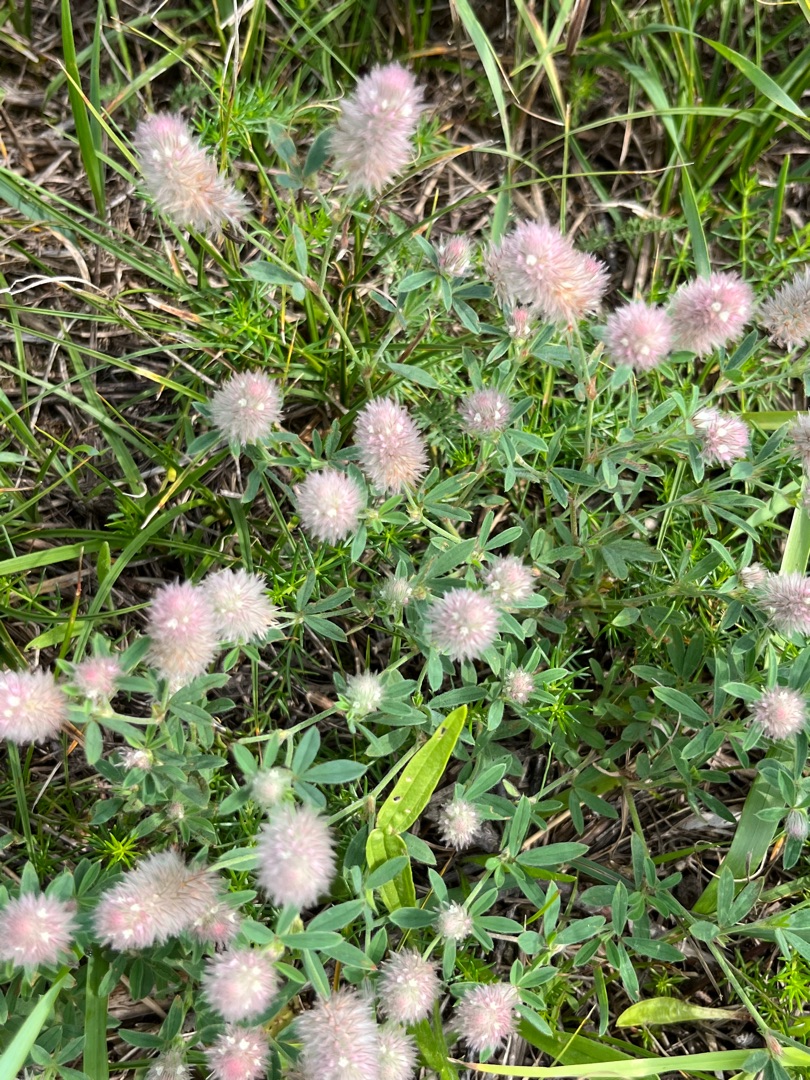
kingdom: Plantae
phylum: Tracheophyta
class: Magnoliopsida
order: Fabales
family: Fabaceae
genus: Trifolium
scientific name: Trifolium arvense
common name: Hare-kløver
